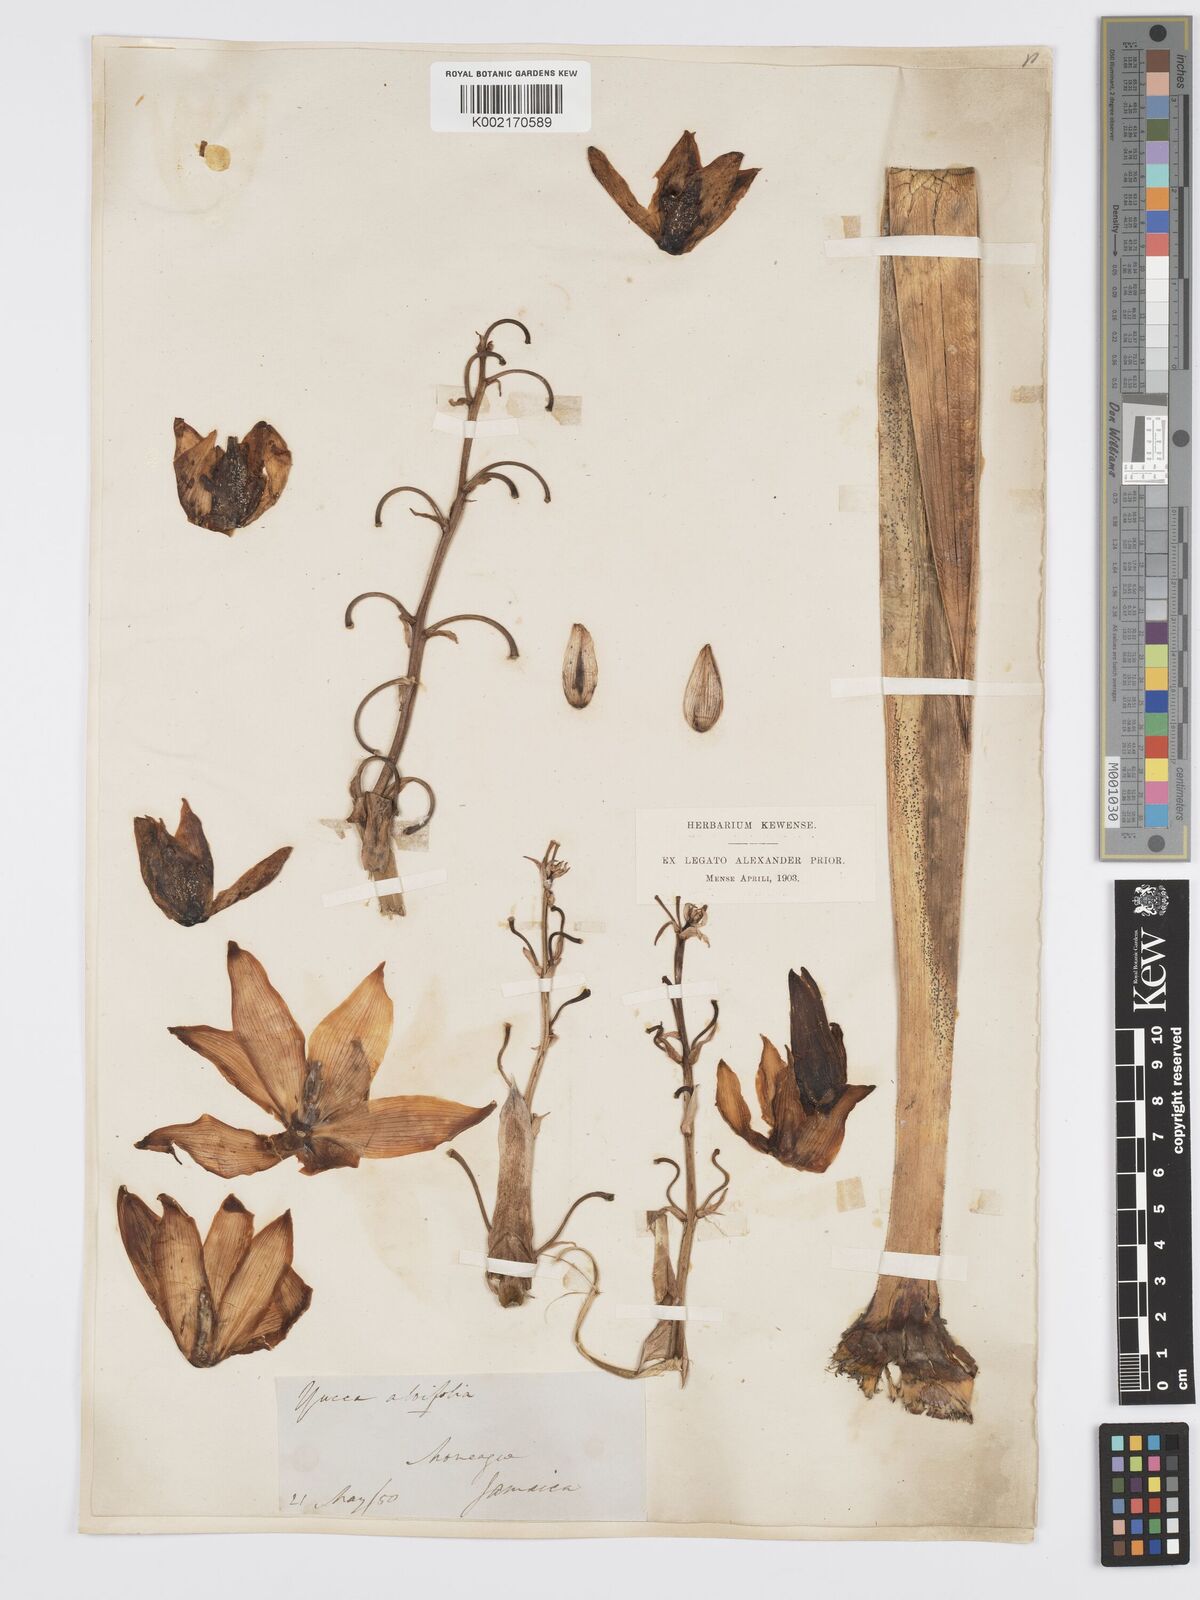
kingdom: Plantae
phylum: Tracheophyta
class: Liliopsida
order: Asparagales
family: Asparagaceae
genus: Yucca
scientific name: Yucca aloifolia
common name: Aloe yucca
